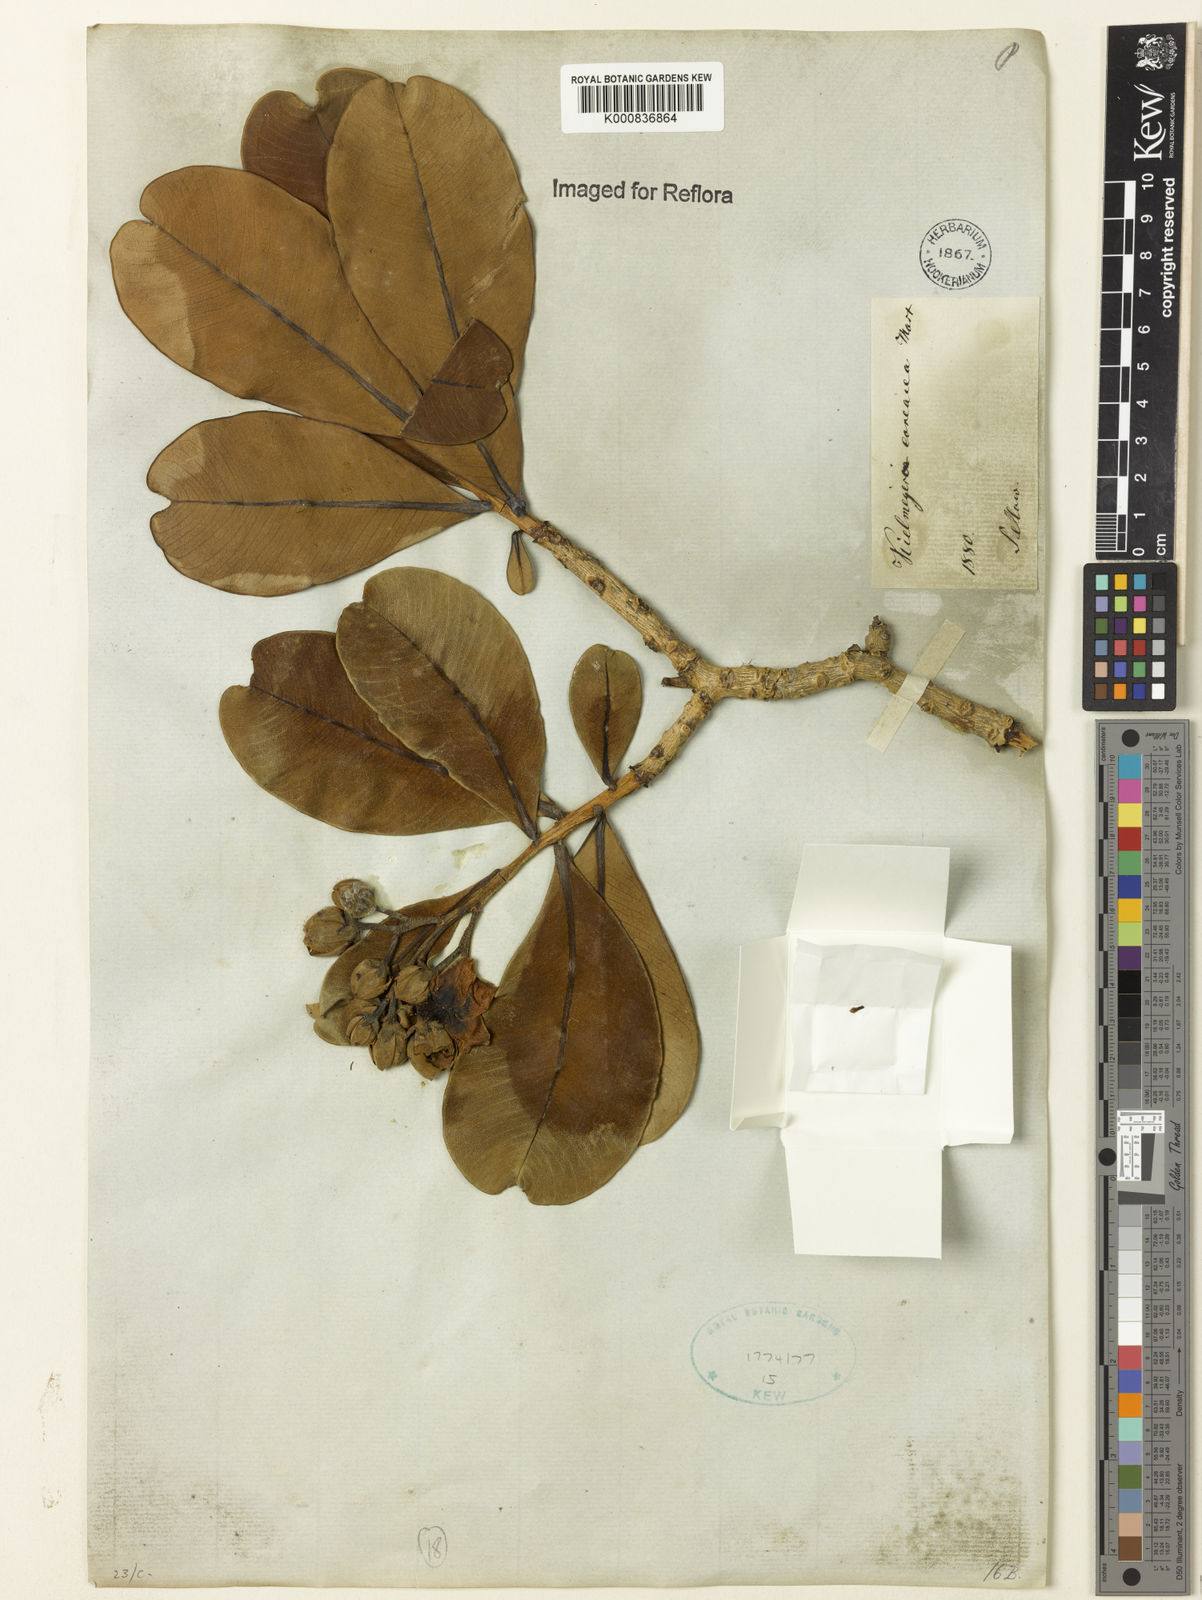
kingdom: Plantae
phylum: Tracheophyta
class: Magnoliopsida
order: Malpighiales
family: Calophyllaceae
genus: Kielmeyera
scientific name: Kielmeyera coriacea
